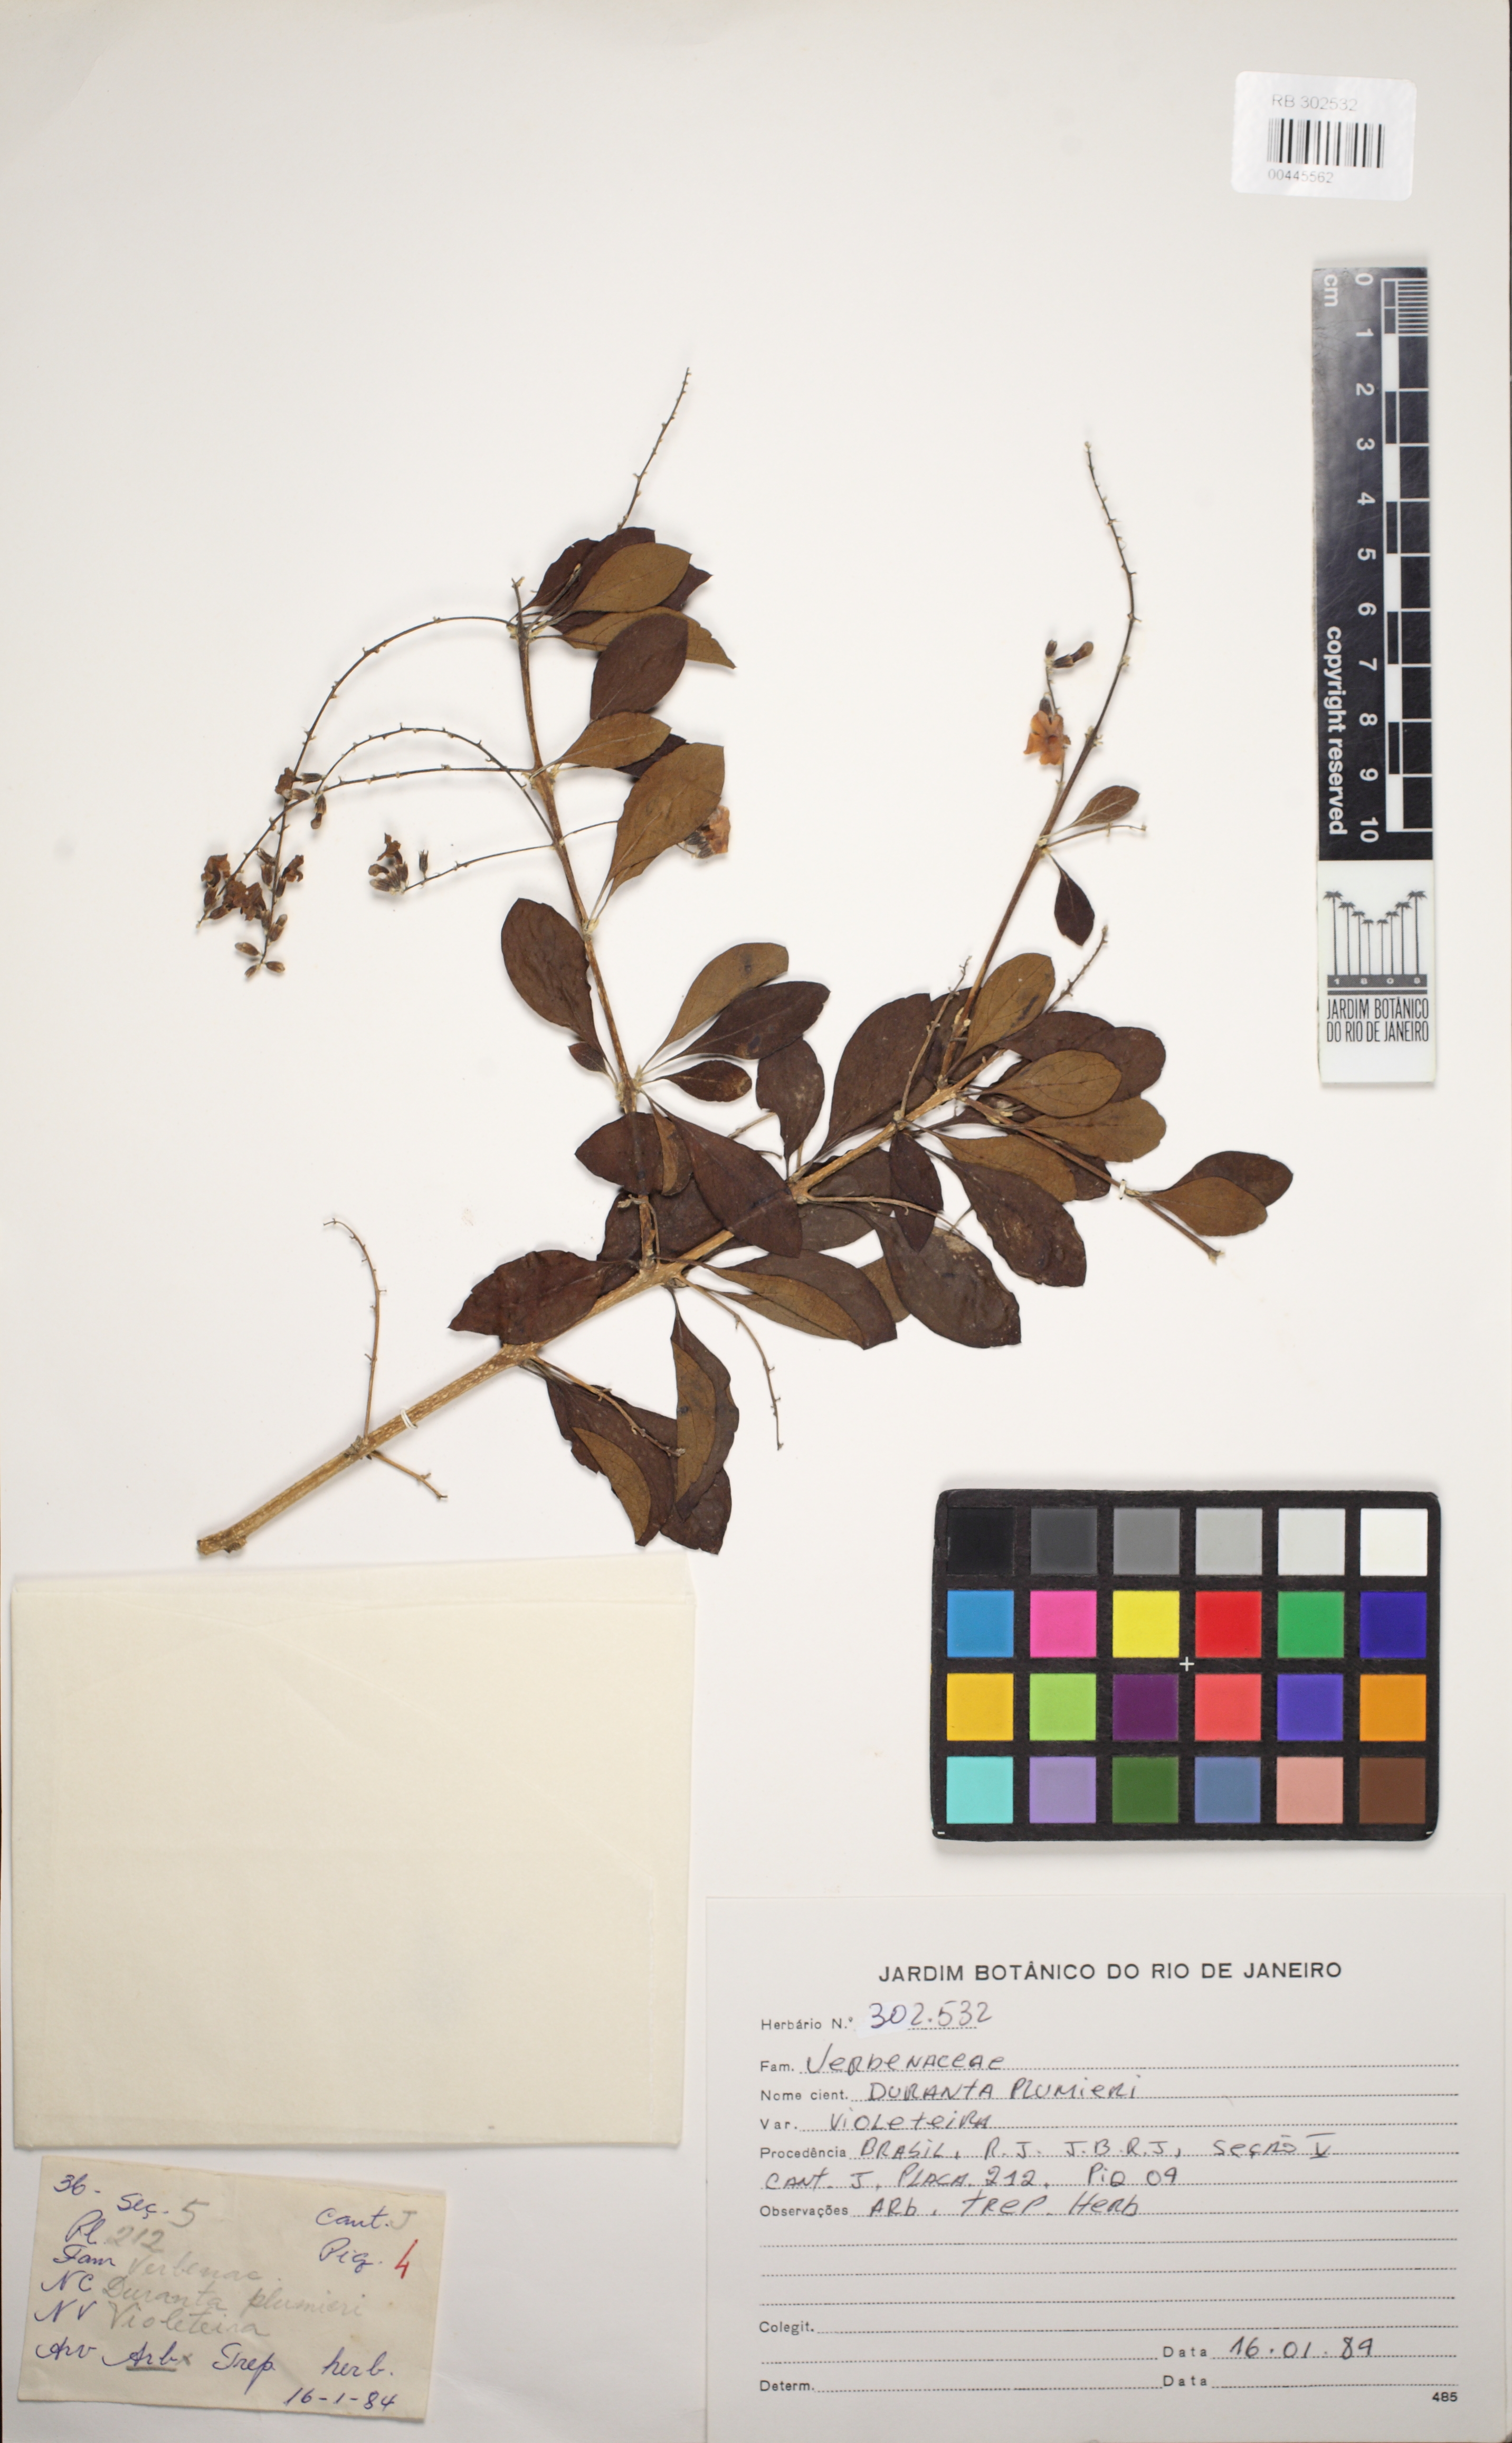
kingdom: Plantae
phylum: Tracheophyta
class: Magnoliopsida
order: Lamiales
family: Verbenaceae
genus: Duranta
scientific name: Duranta erecta
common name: Golden dewdrops
